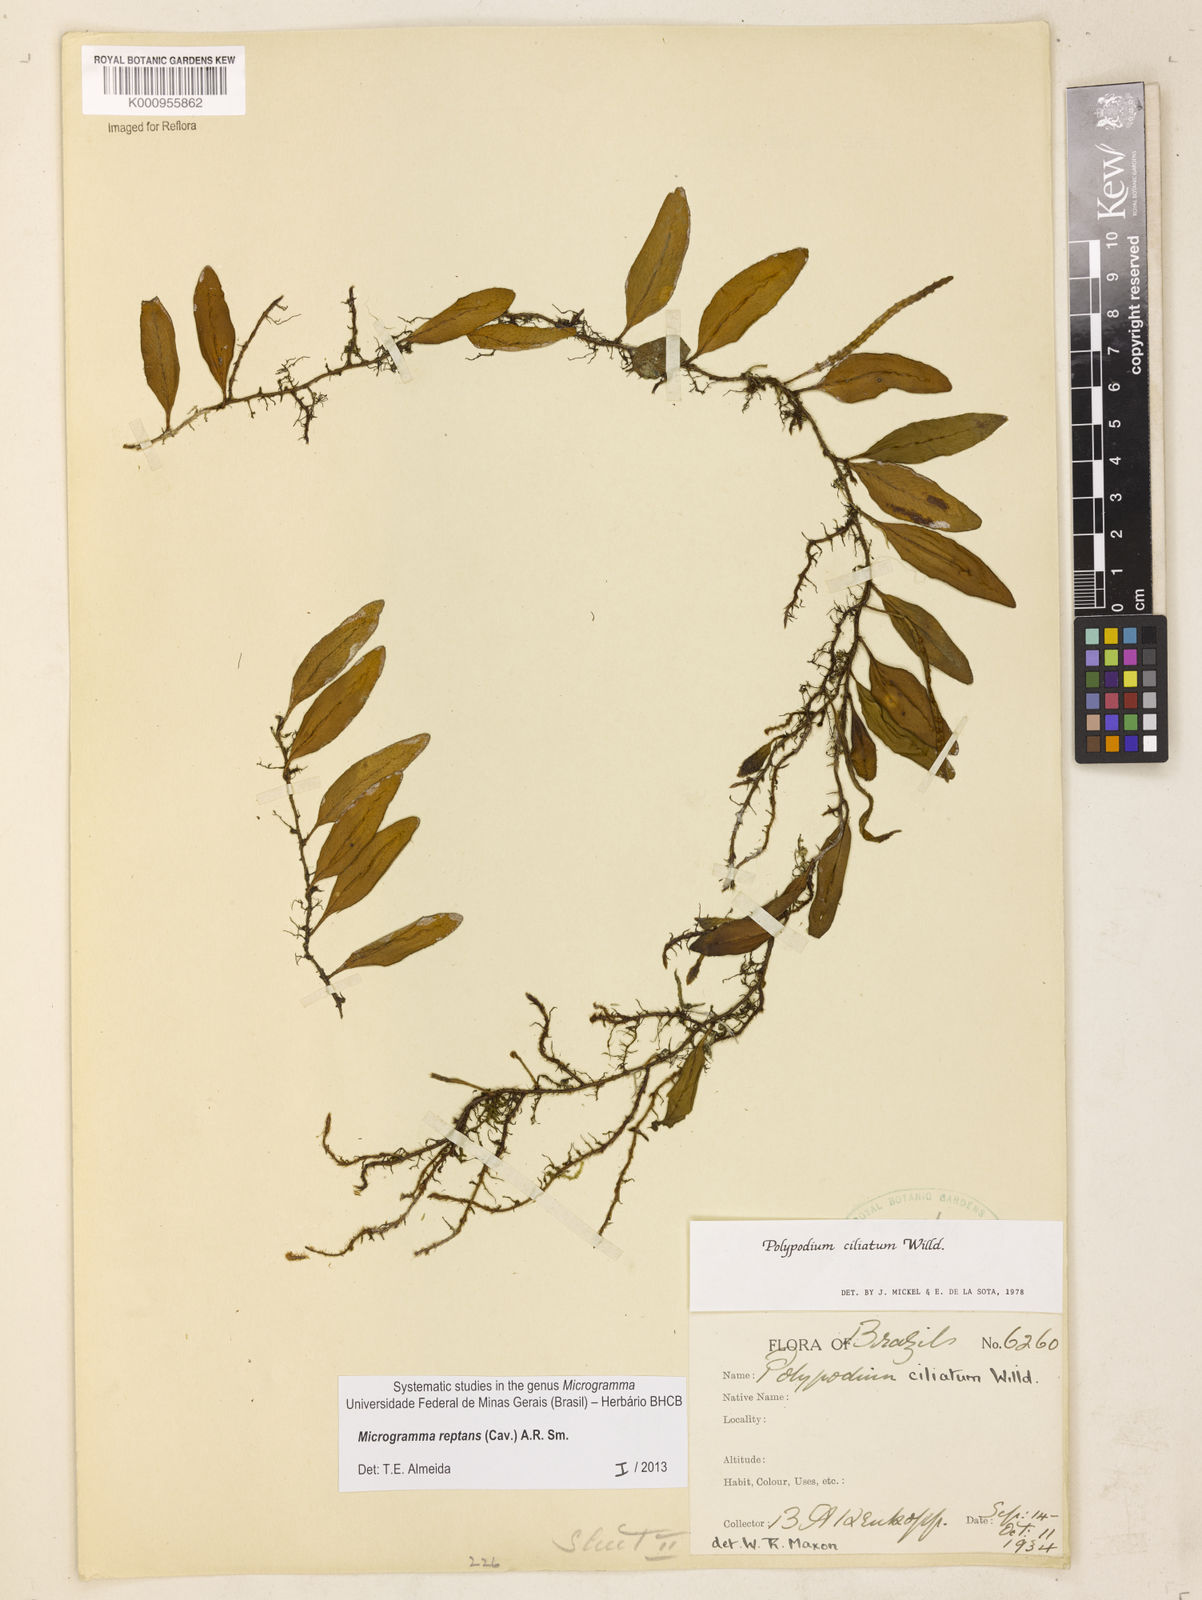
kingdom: Plantae
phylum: Tracheophyta
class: Polypodiopsida
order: Polypodiales
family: Polypodiaceae
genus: Microgramma
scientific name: Microgramma reptans
